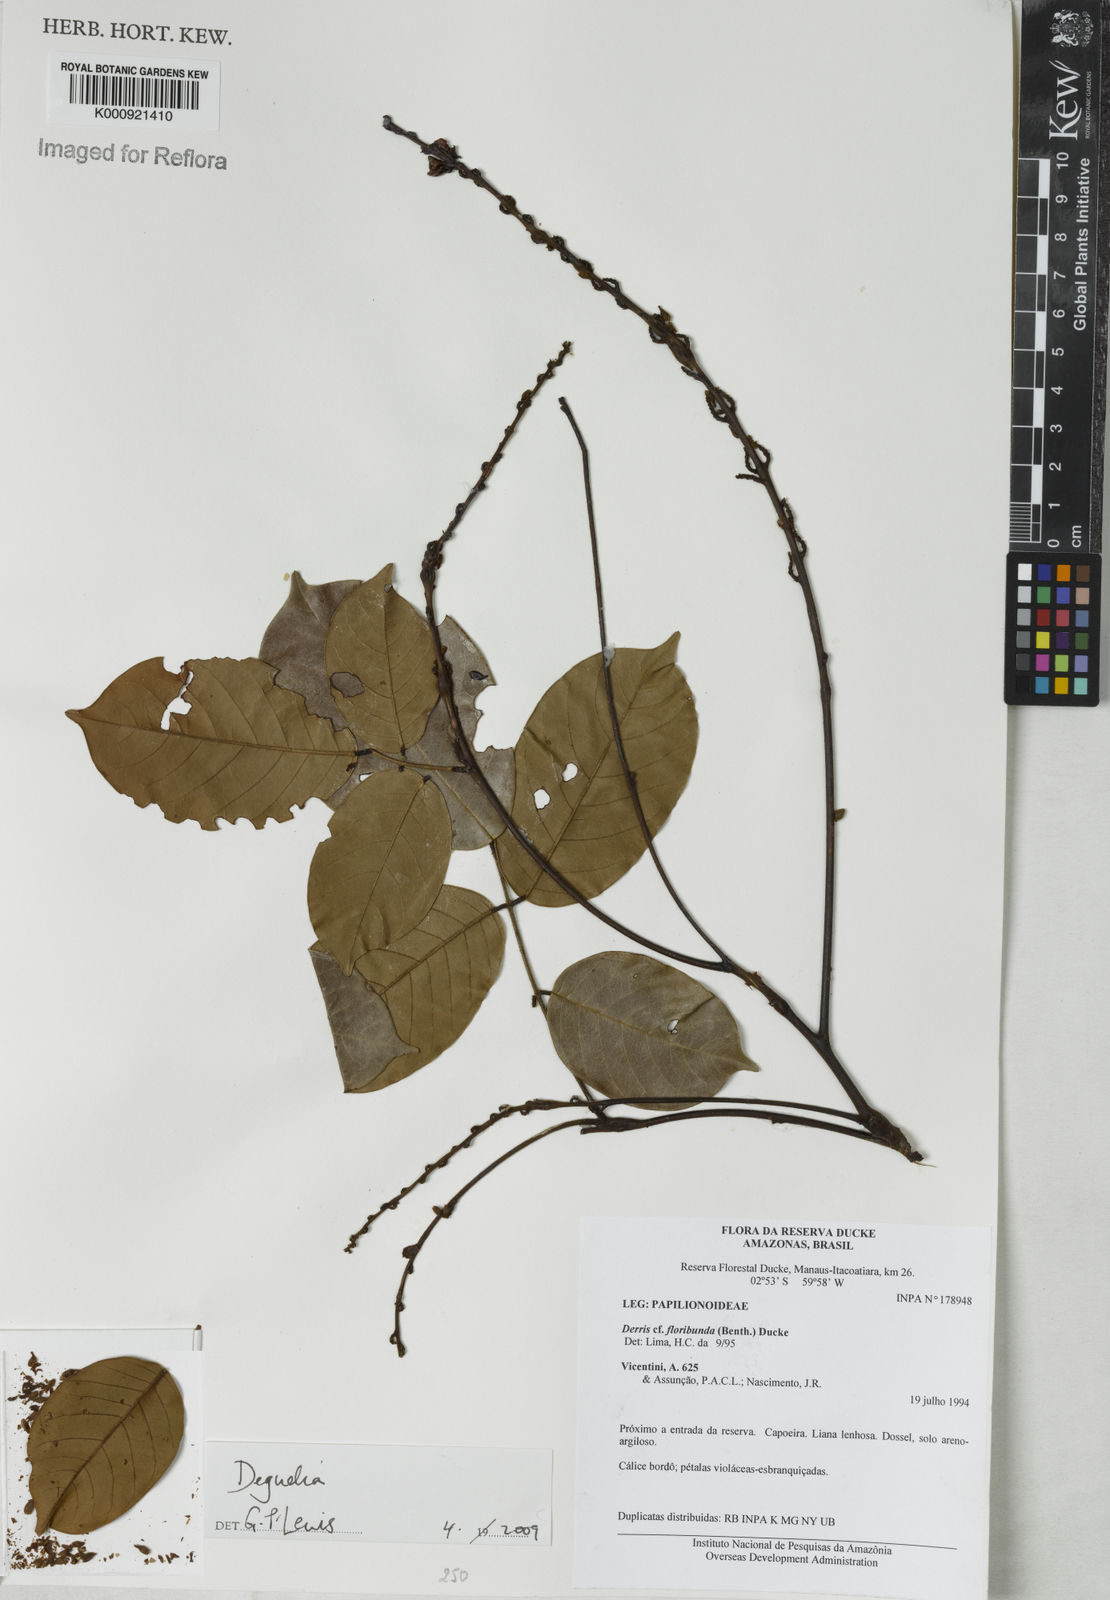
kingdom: Plantae
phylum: Tracheophyta
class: Magnoliopsida
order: Fabales
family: Fabaceae
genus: Deguelia
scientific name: Deguelia
